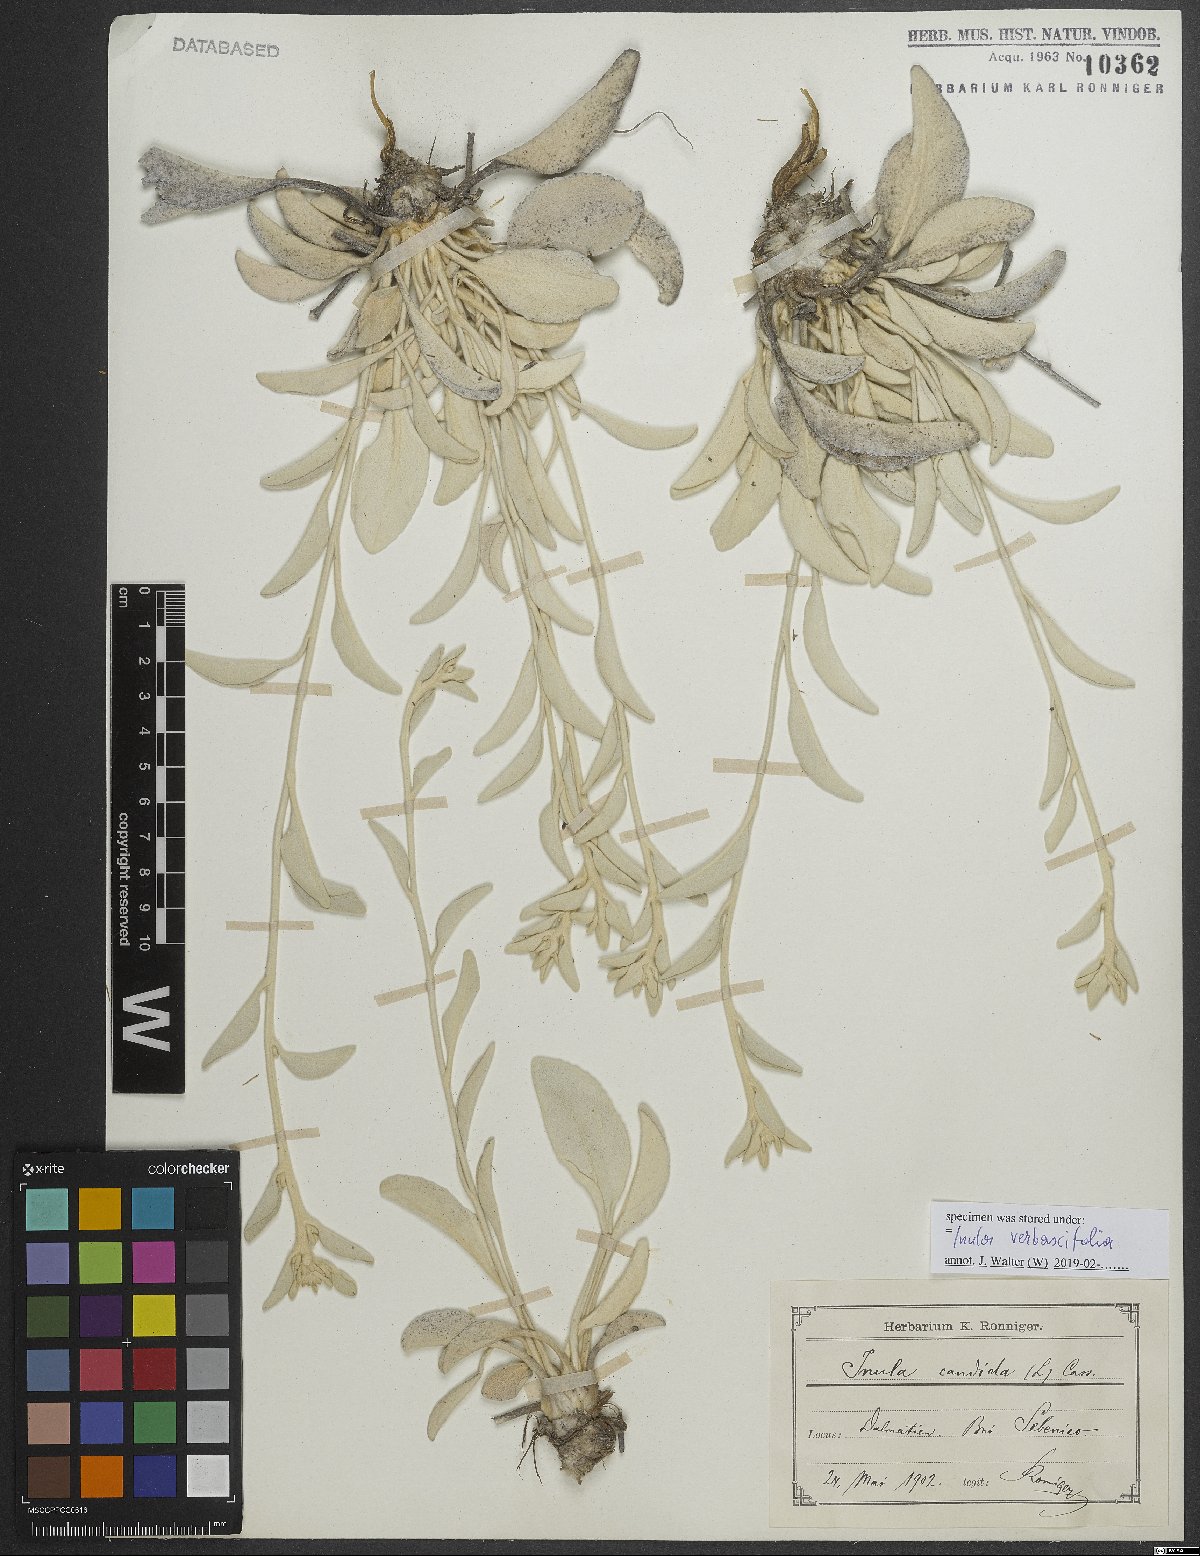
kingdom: Plantae
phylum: Tracheophyta
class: Magnoliopsida
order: Asterales
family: Asteraceae
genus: Pentanema
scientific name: Pentanema verbascifolium
